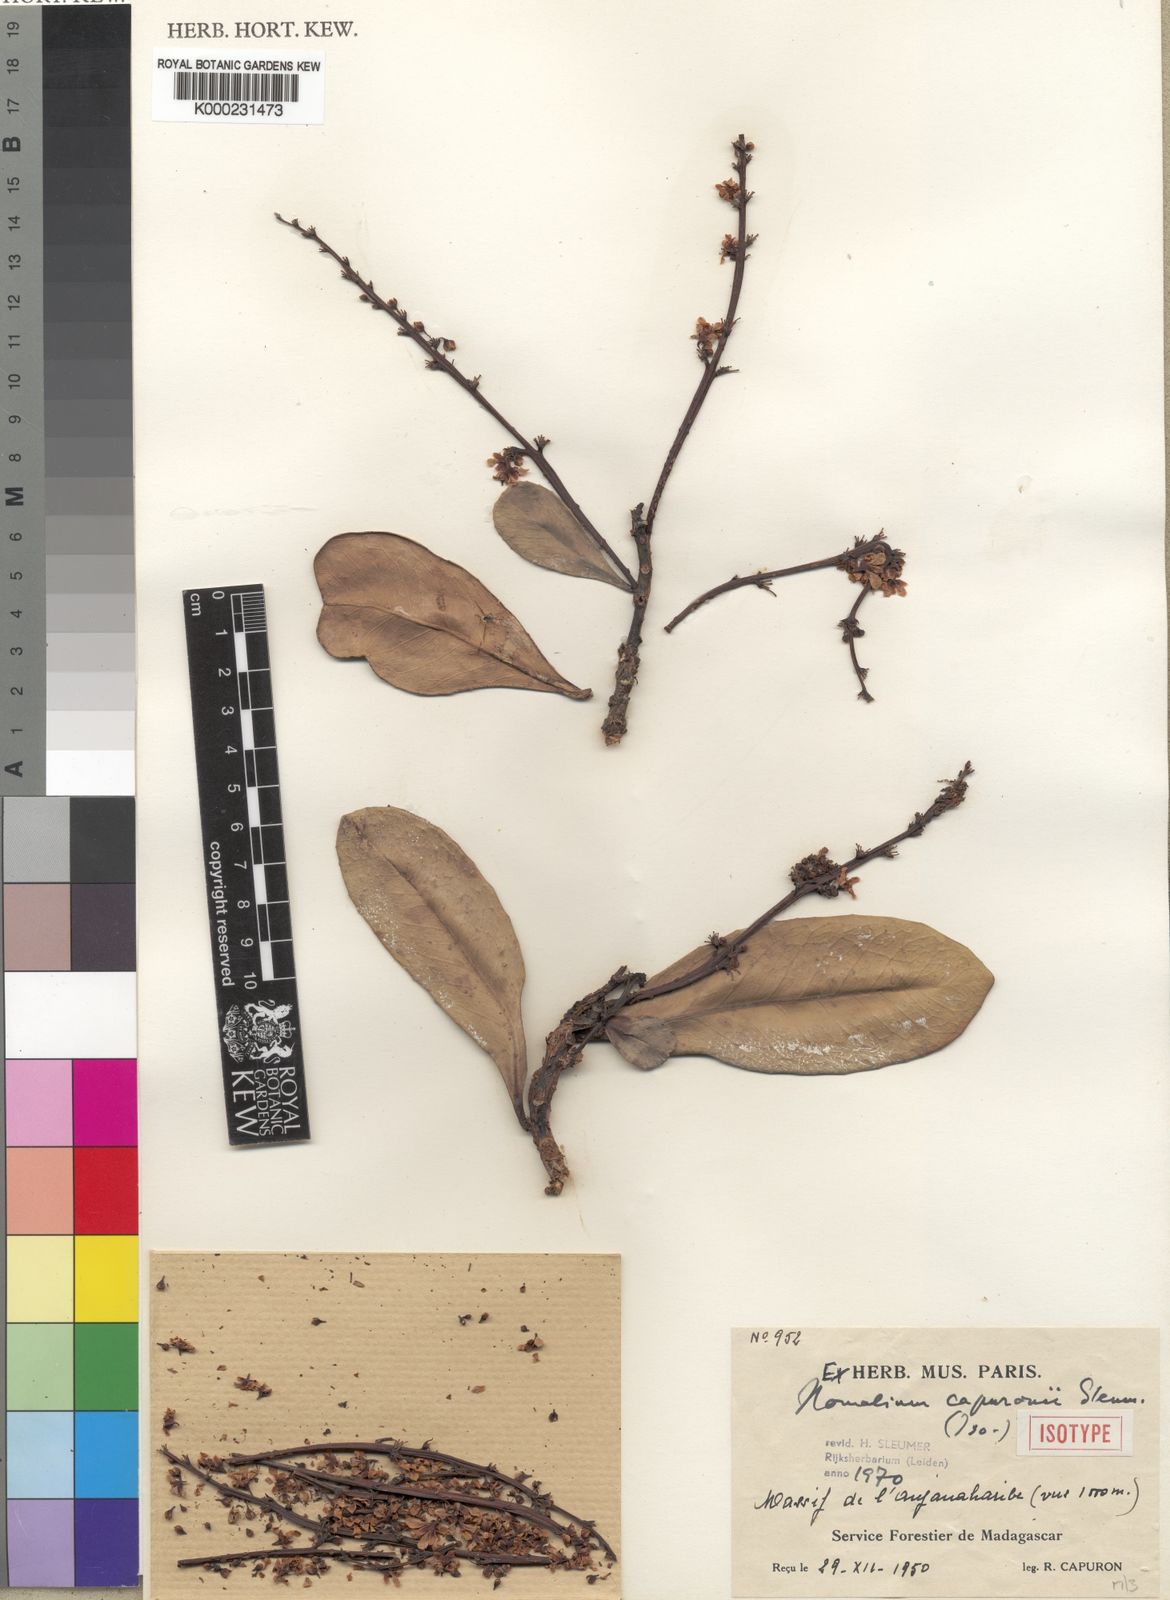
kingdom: Plantae
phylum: Tracheophyta
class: Magnoliopsida
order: Malpighiales
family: Salicaceae
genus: Homalium
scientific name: Homalium capuronii
